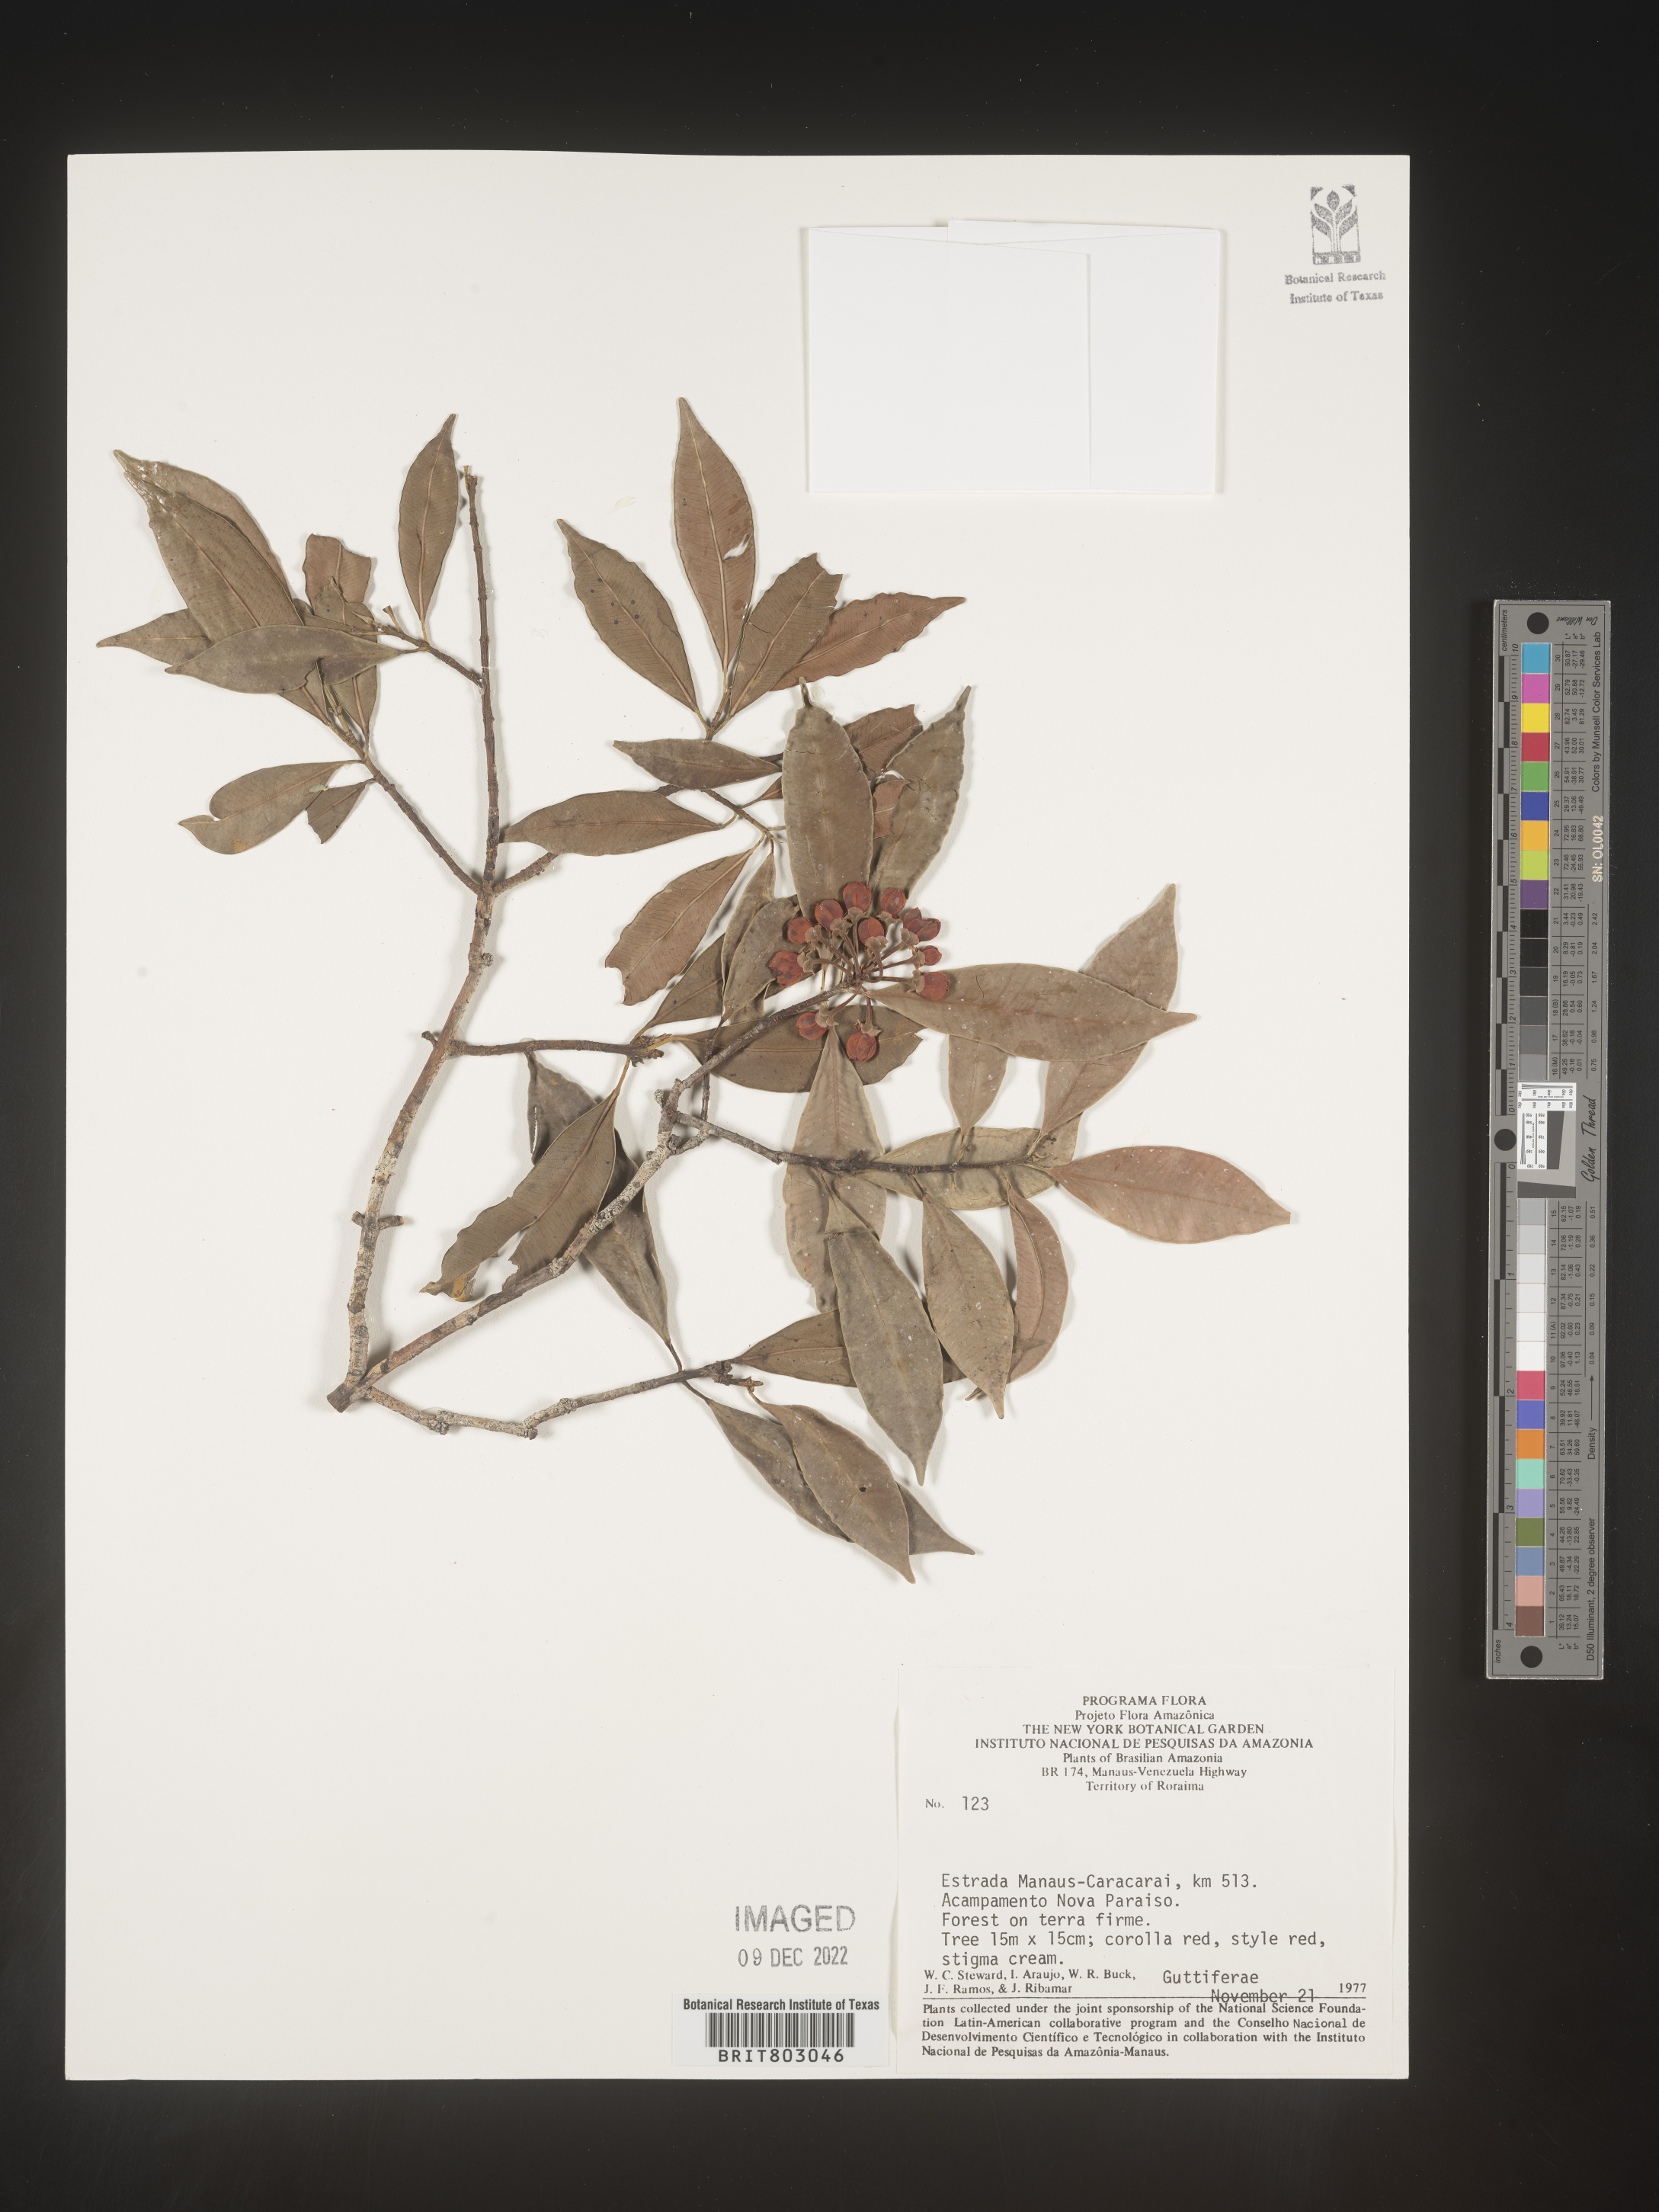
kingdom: Plantae
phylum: Tracheophyta
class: Magnoliopsida
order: Malpighiales
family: Clusiaceae
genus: Symphonia
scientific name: Symphonia
